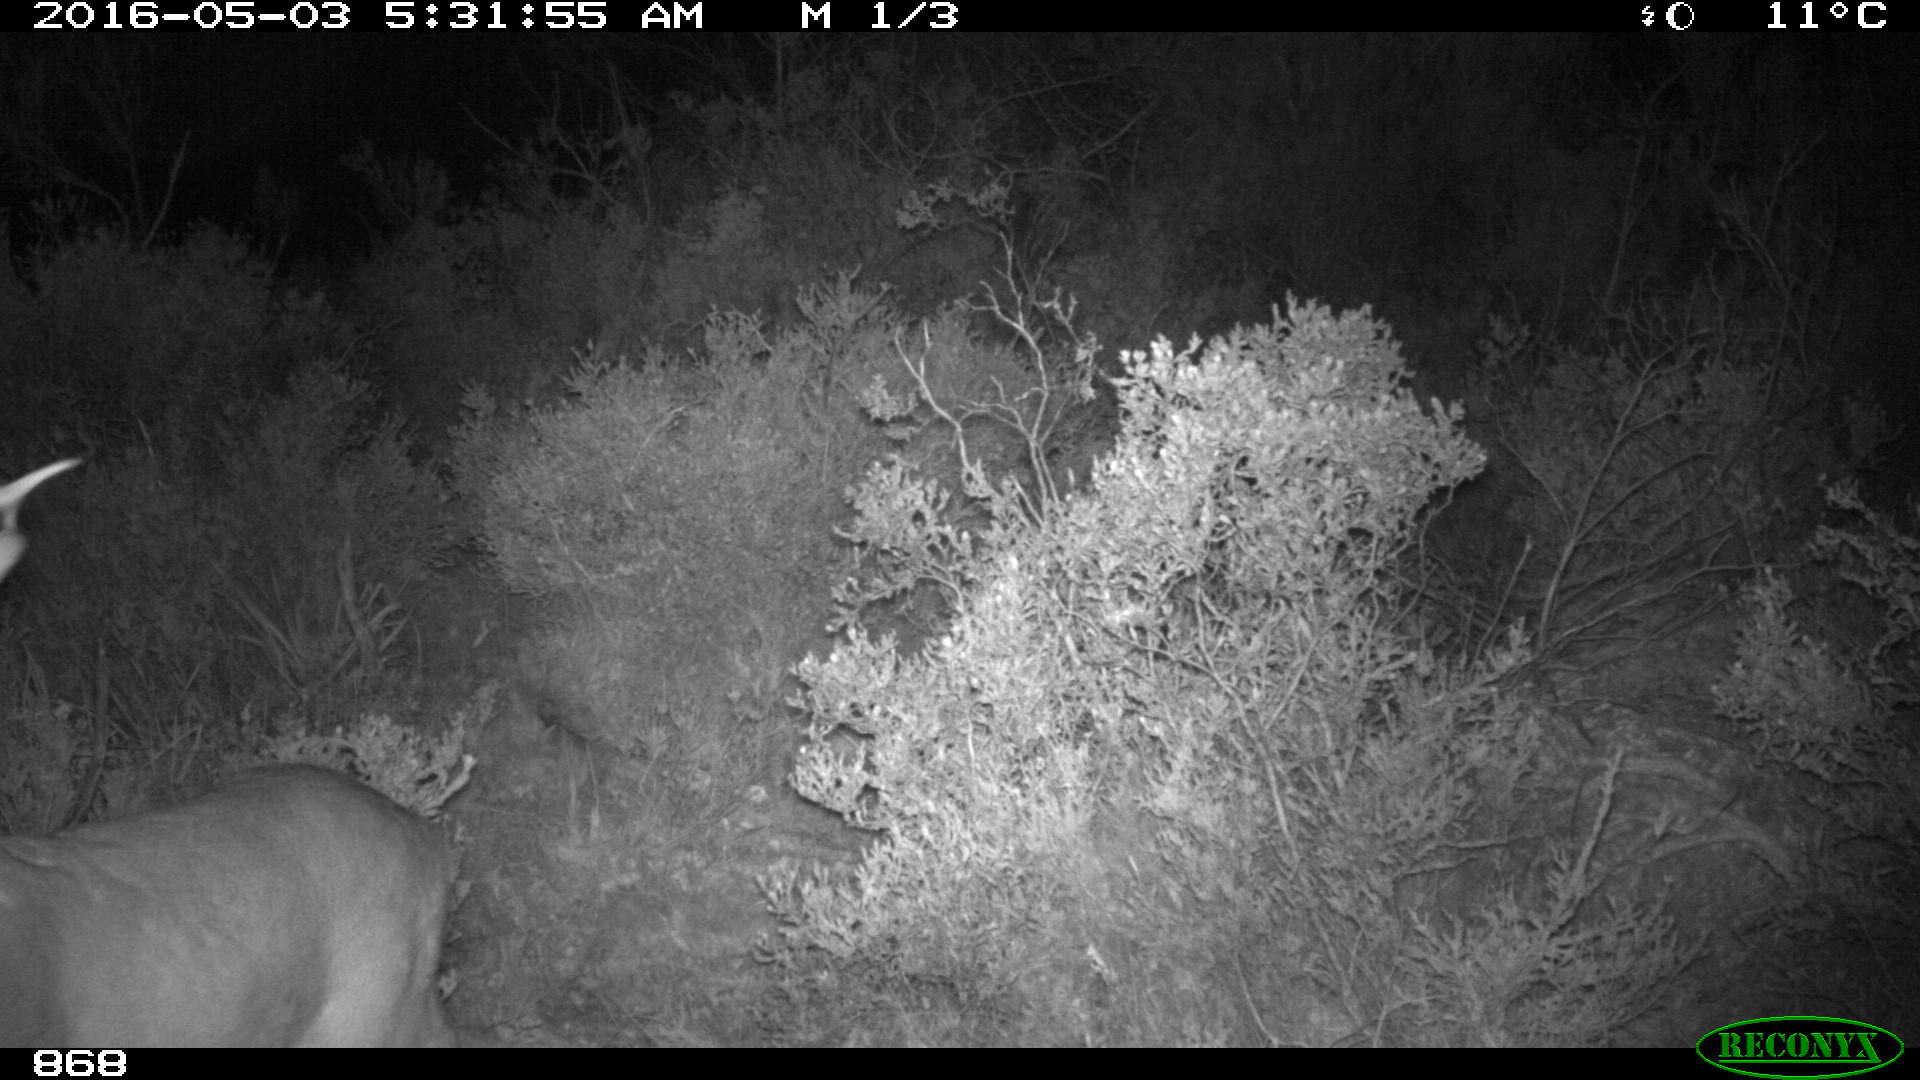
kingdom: Animalia
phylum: Chordata
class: Mammalia
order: Artiodactyla
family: Cervidae
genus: Capreolus
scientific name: Capreolus capreolus
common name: Western roe deer
